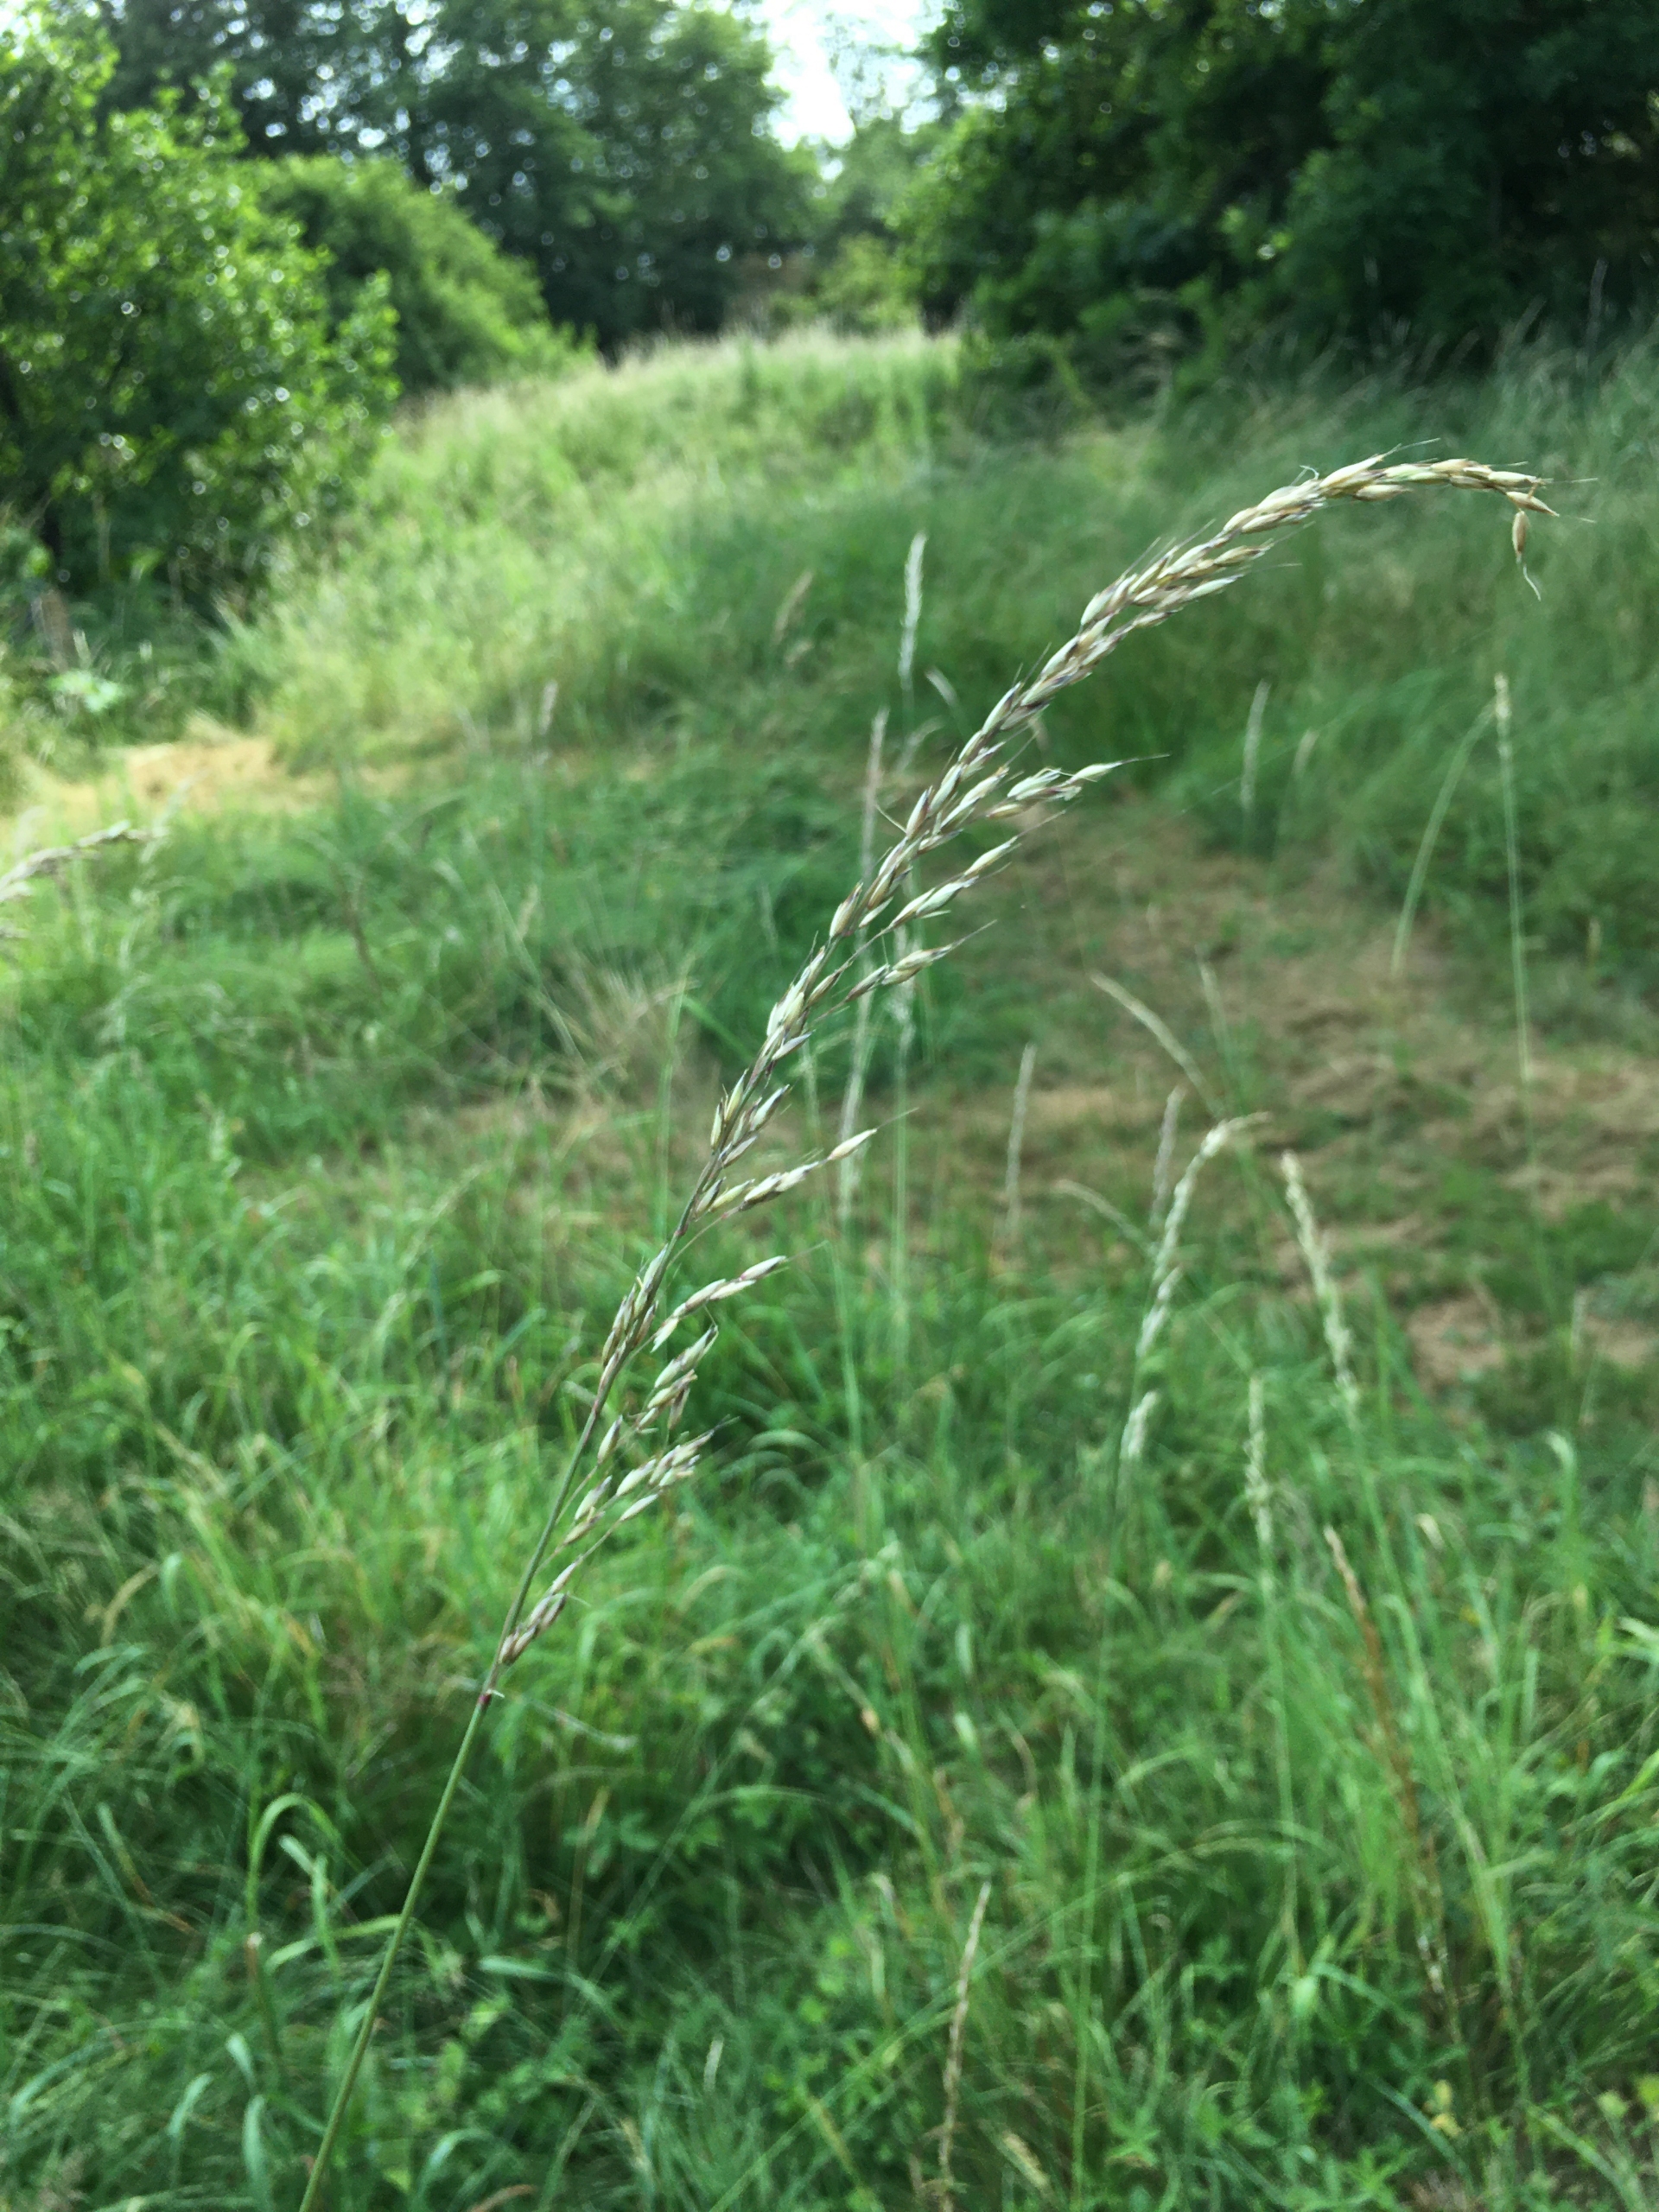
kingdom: Plantae
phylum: Tracheophyta
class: Liliopsida
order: Poales
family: Poaceae
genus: Arrhenatherum
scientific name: Arrhenatherum elatius
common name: Draphavre
